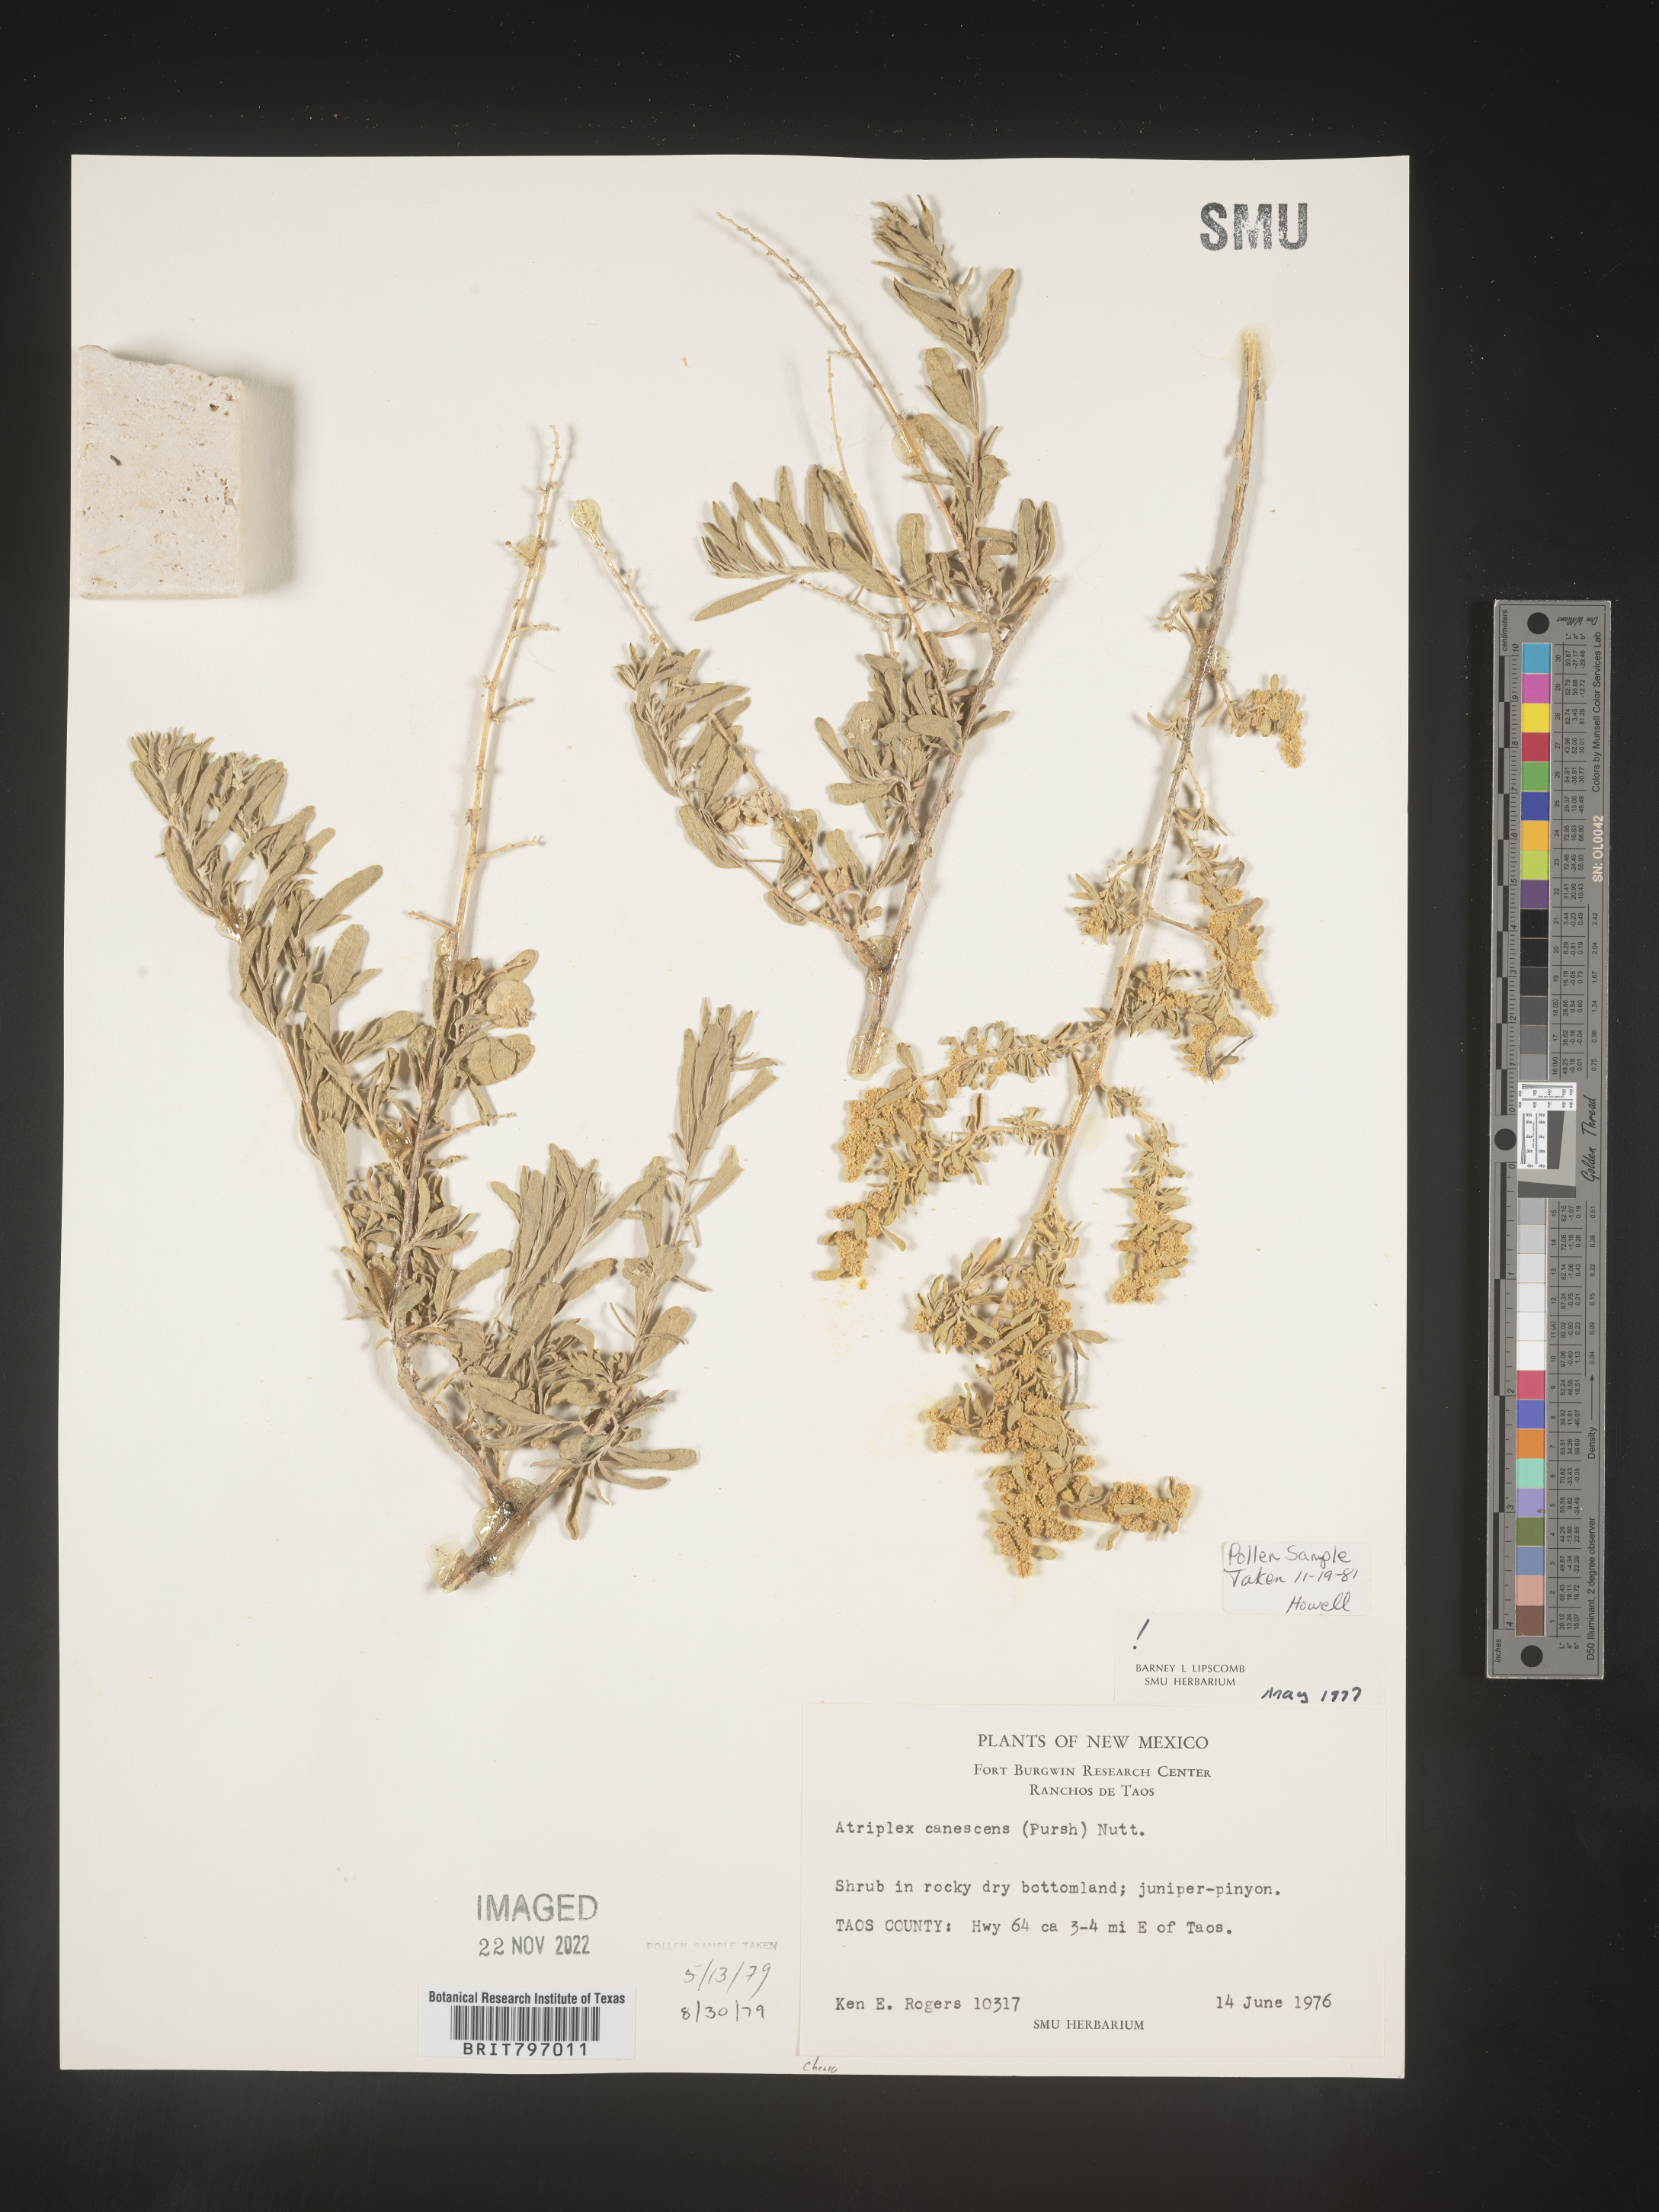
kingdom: Plantae
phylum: Tracheophyta
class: Magnoliopsida
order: Caryophyllales
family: Amaranthaceae
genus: Atriplex
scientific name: Atriplex canescens
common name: Four-wing saltbush
